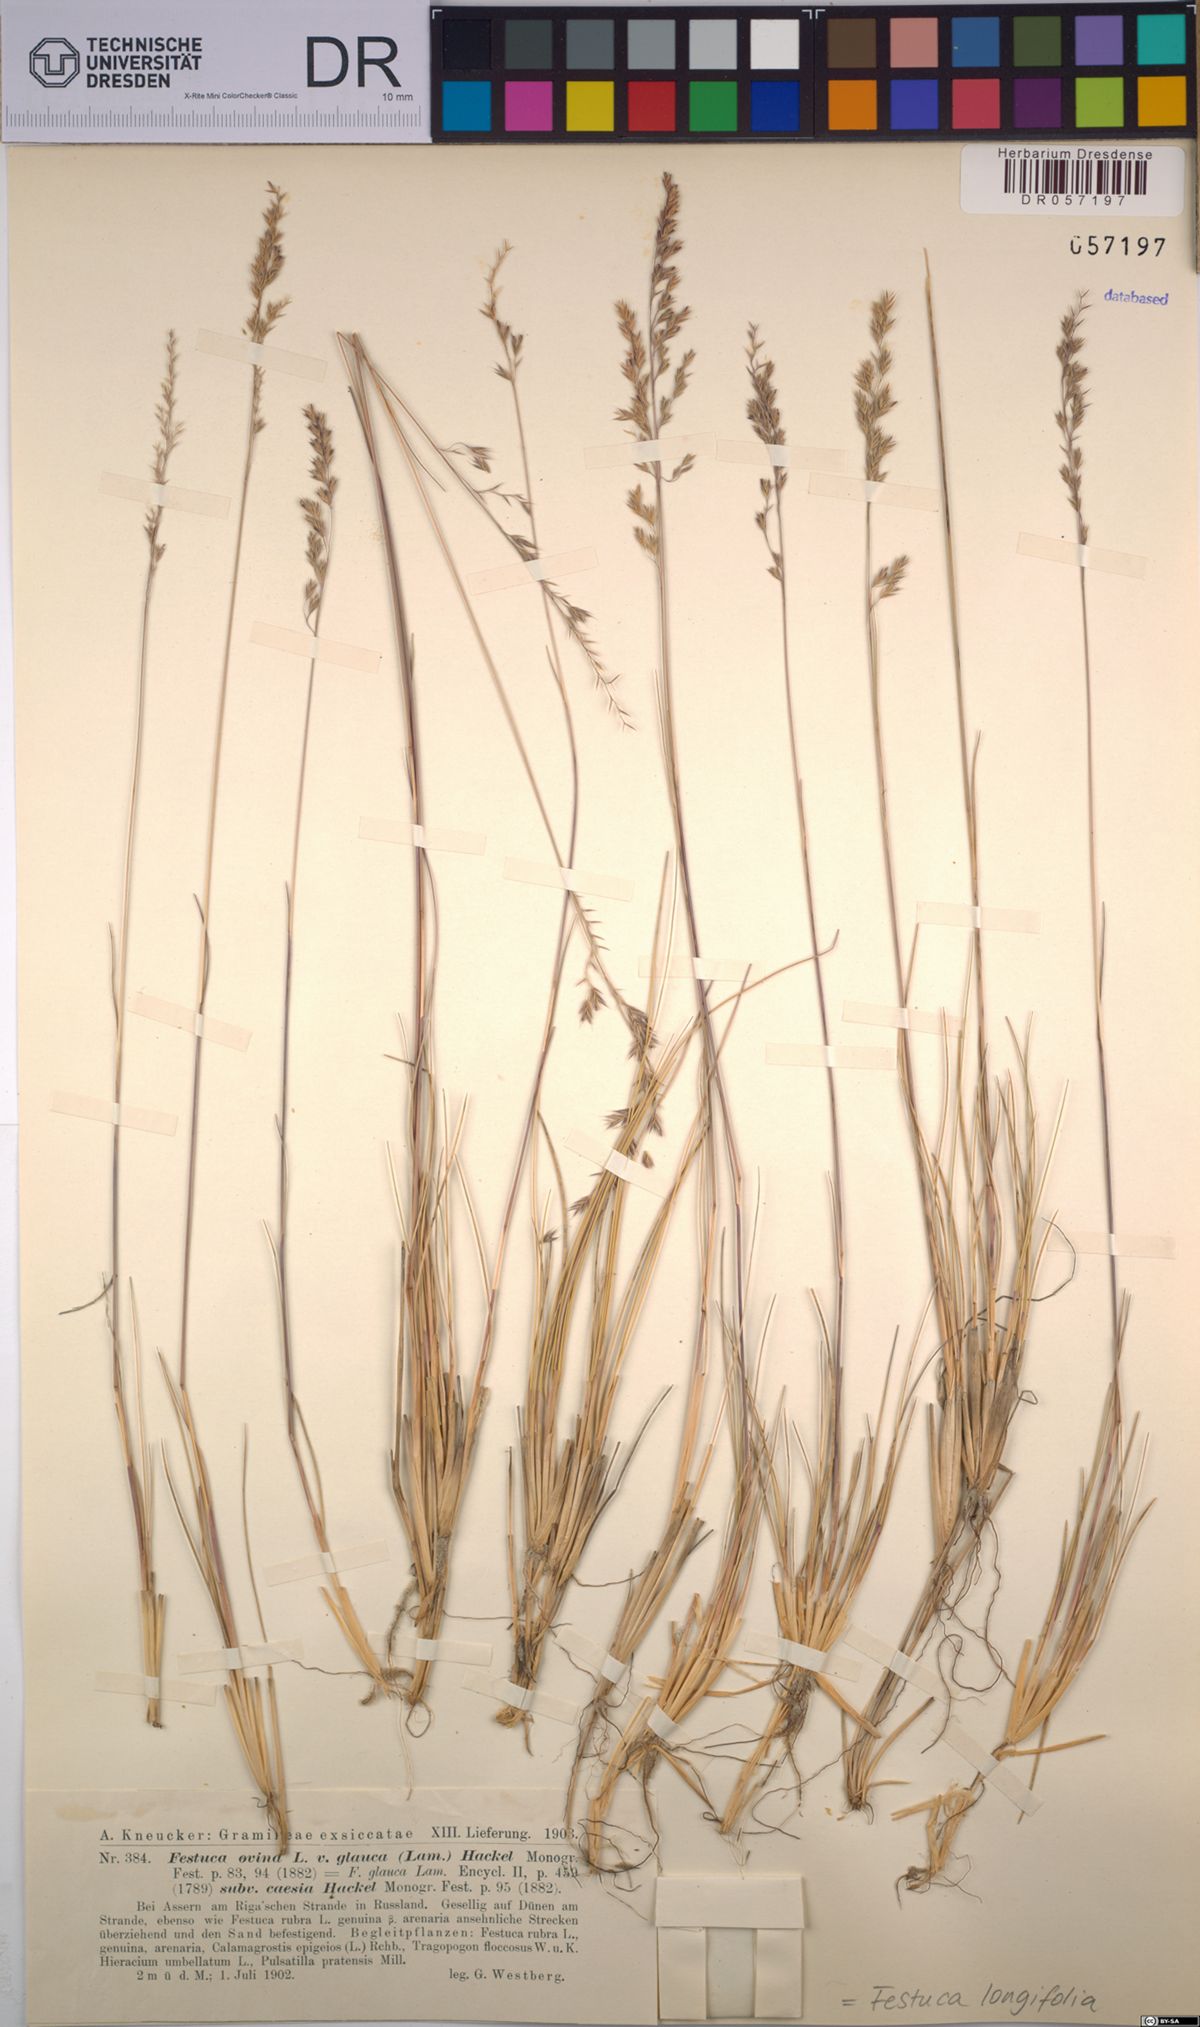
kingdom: Plantae
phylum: Tracheophyta
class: Liliopsida
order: Poales
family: Poaceae
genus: Festuca
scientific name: Festuca longifolia
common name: Blue fescue
